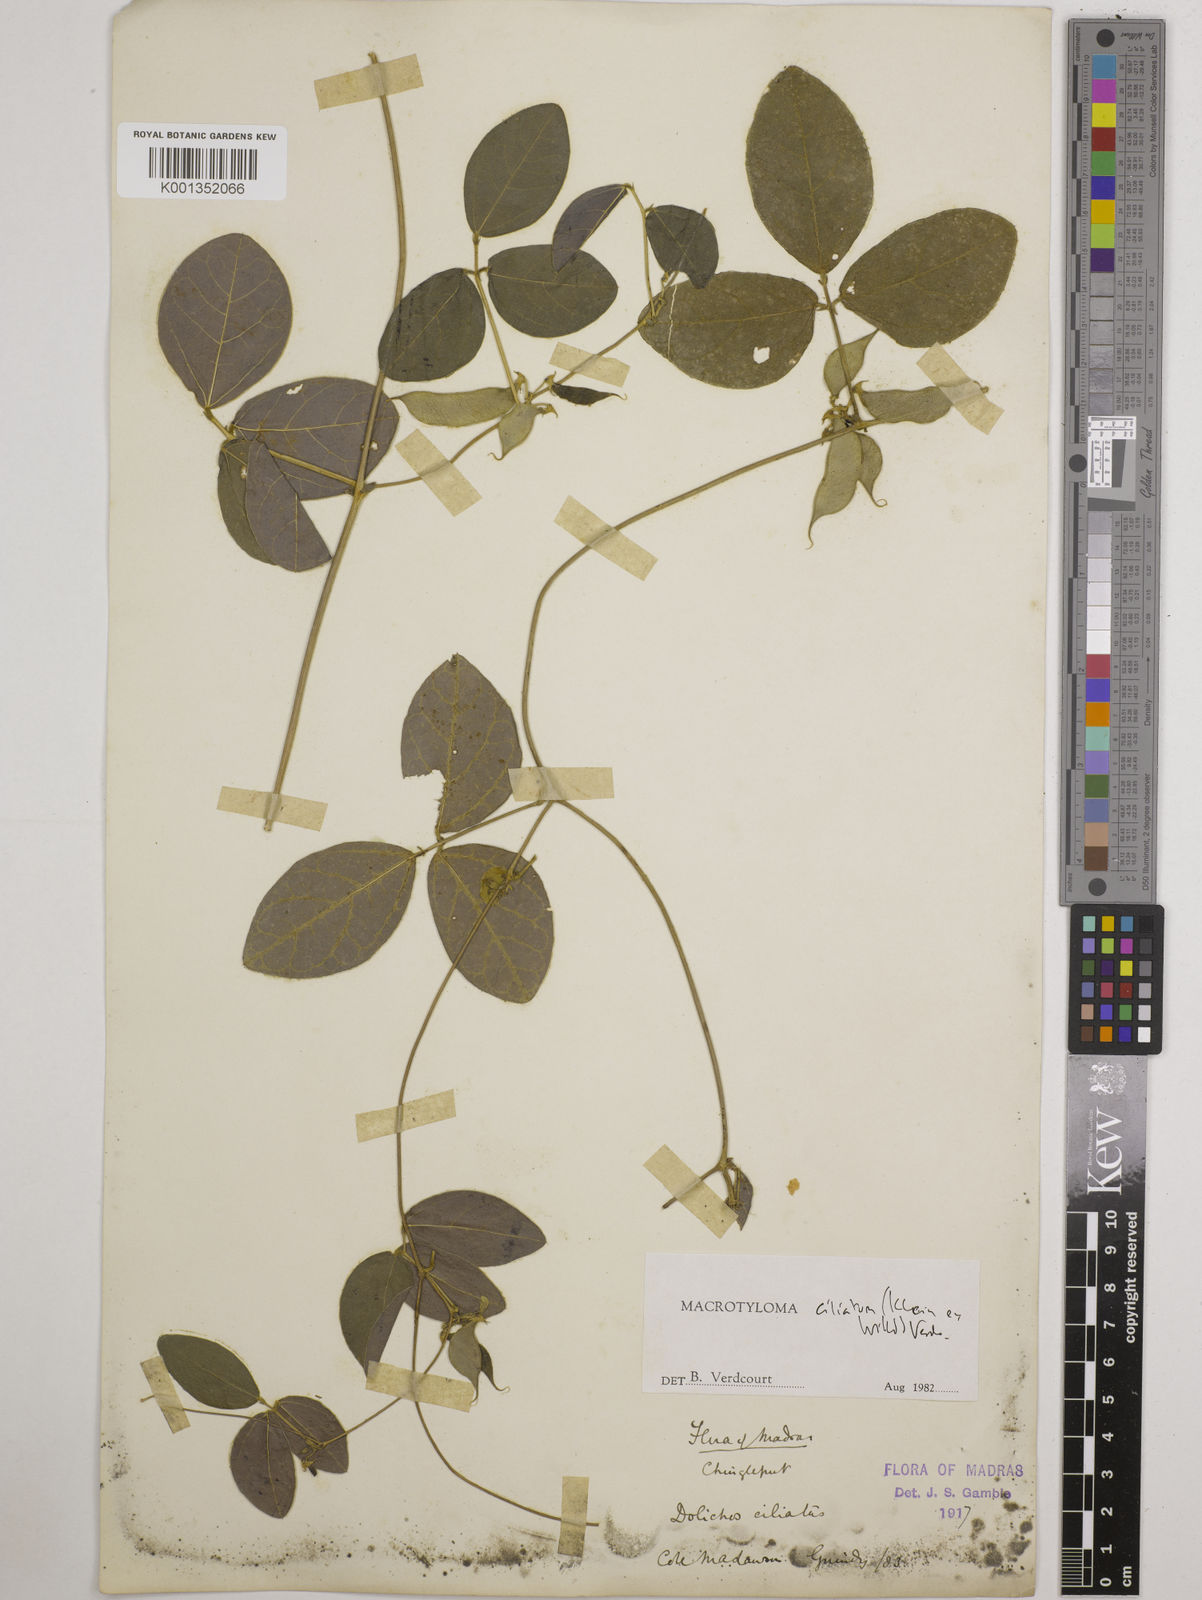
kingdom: Plantae
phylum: Tracheophyta
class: Magnoliopsida
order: Fabales
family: Fabaceae
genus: Macrotyloma
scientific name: Macrotyloma ciliatum
